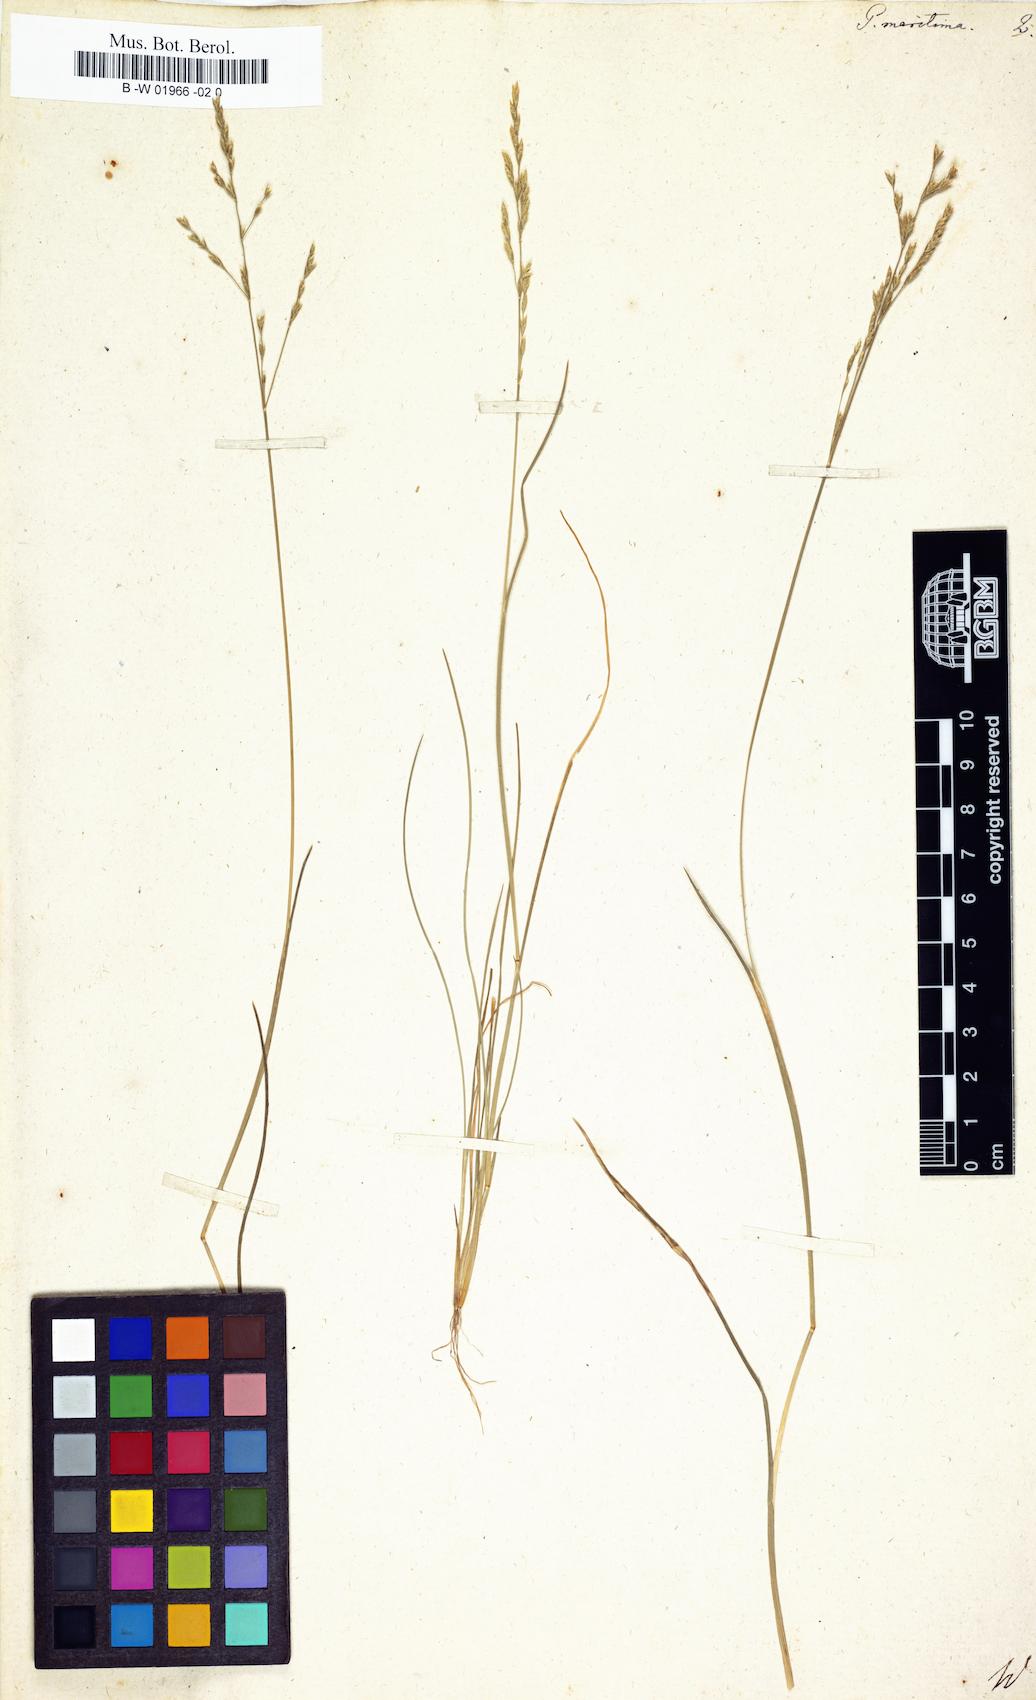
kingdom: Plantae
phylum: Tracheophyta
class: Liliopsida
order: Poales
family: Poaceae
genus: Poa
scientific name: Poa maritima
